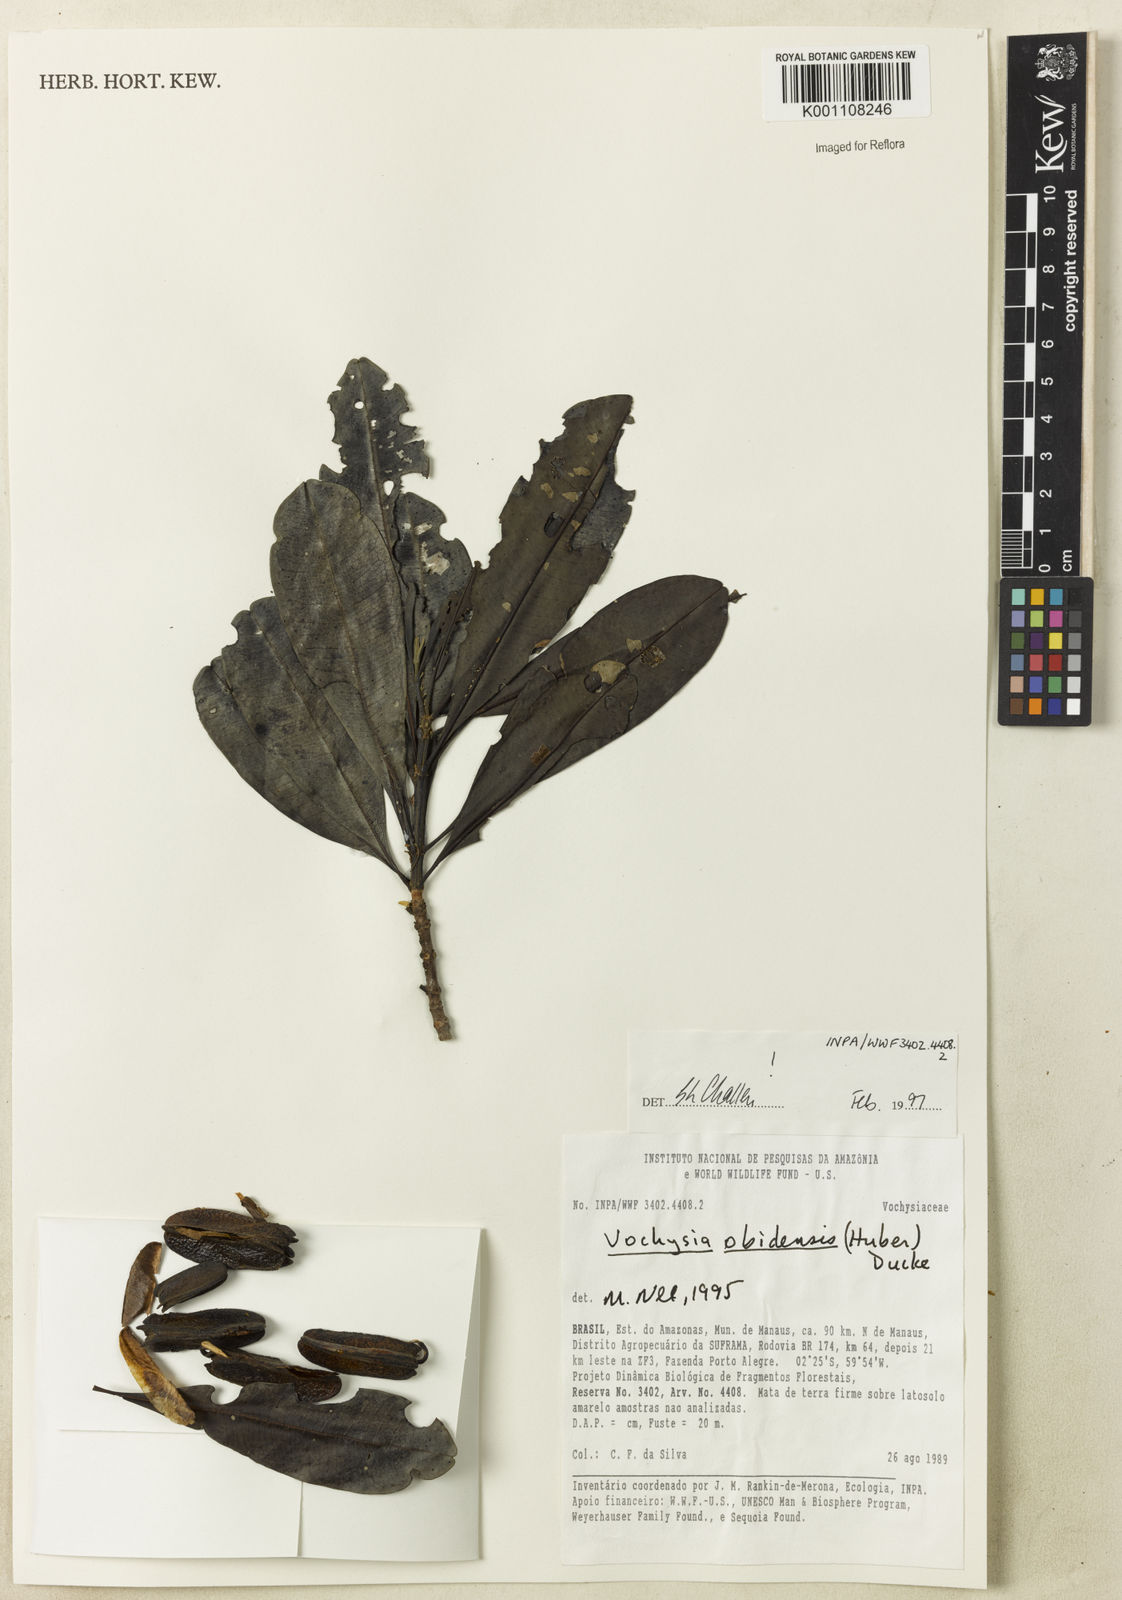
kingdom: Plantae
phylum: Tracheophyta
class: Magnoliopsida
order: Myrtales
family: Vochysiaceae
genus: Vochysia
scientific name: Vochysia obidensis
